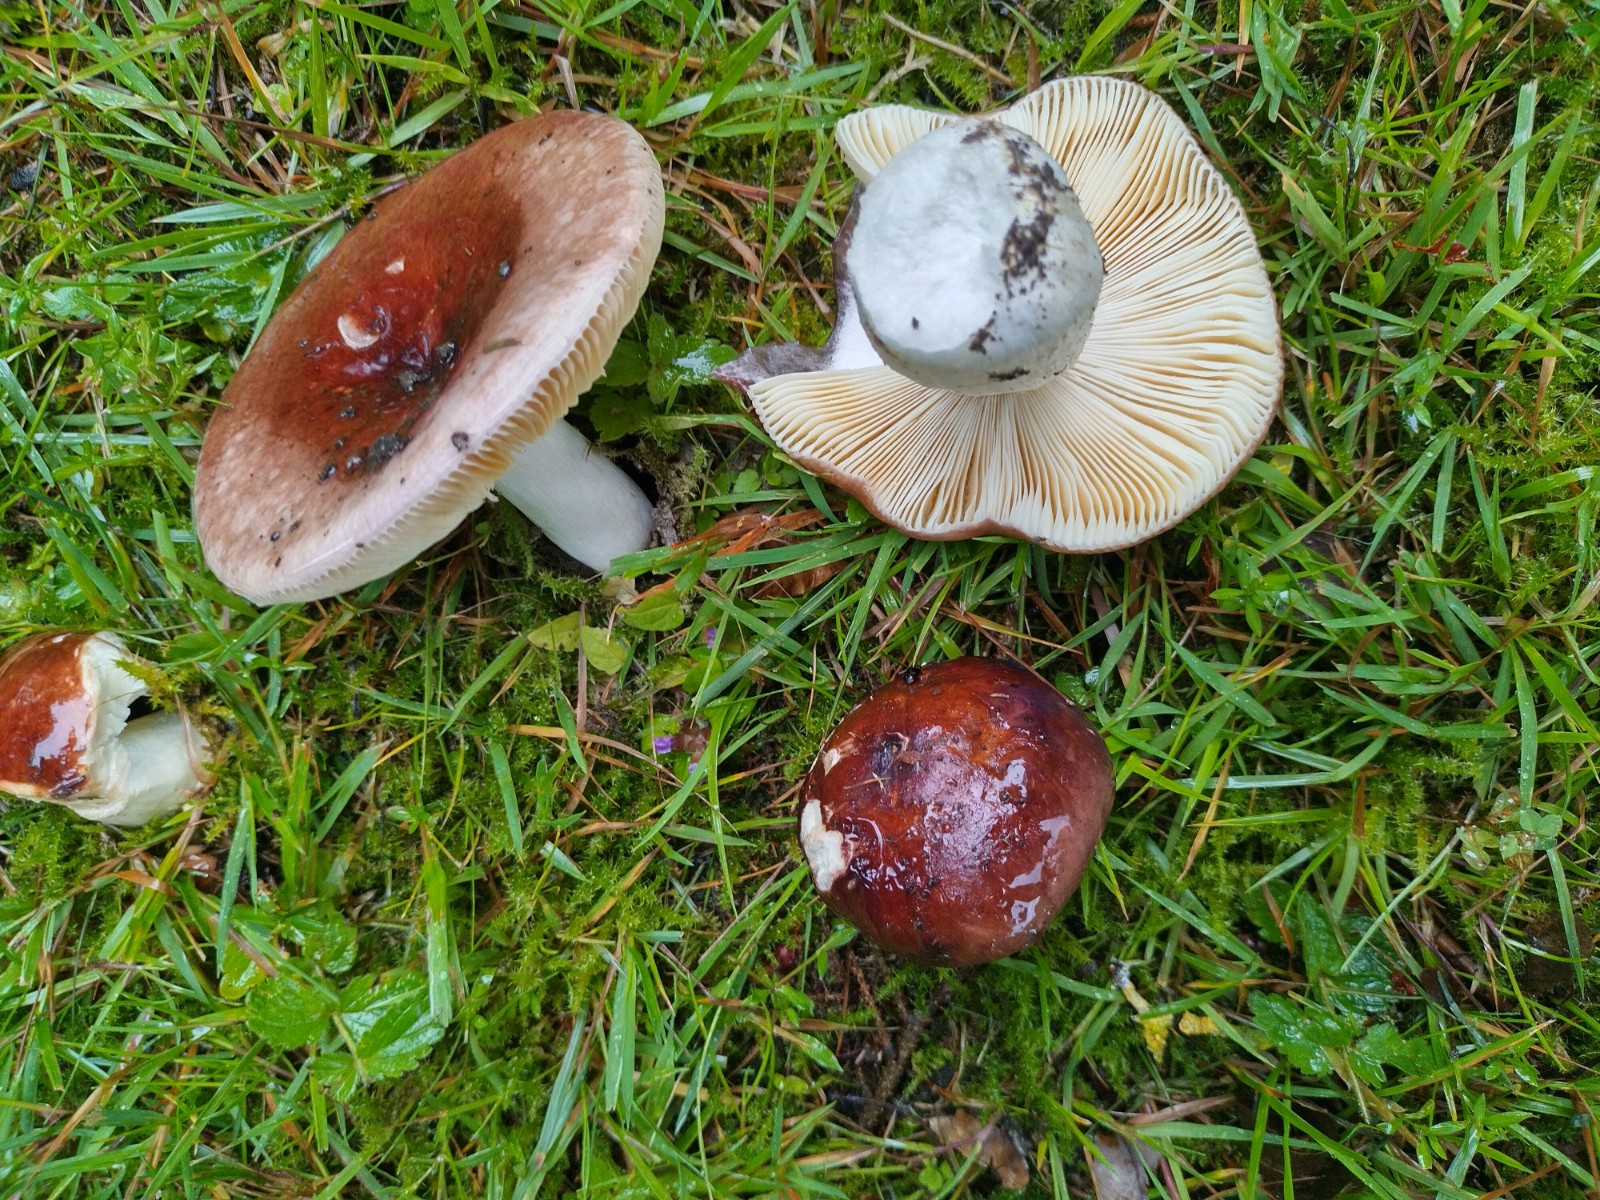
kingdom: Fungi
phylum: Basidiomycota
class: Agaricomycetes
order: Russulales
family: Russulaceae
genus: Russula
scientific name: Russula integra
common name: mandel-skørhat
